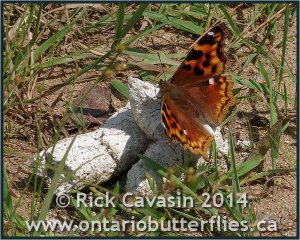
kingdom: Animalia
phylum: Arthropoda
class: Insecta
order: Lepidoptera
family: Nymphalidae
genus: Polygonia
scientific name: Polygonia vaualbum
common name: Compton Tortoiseshell
